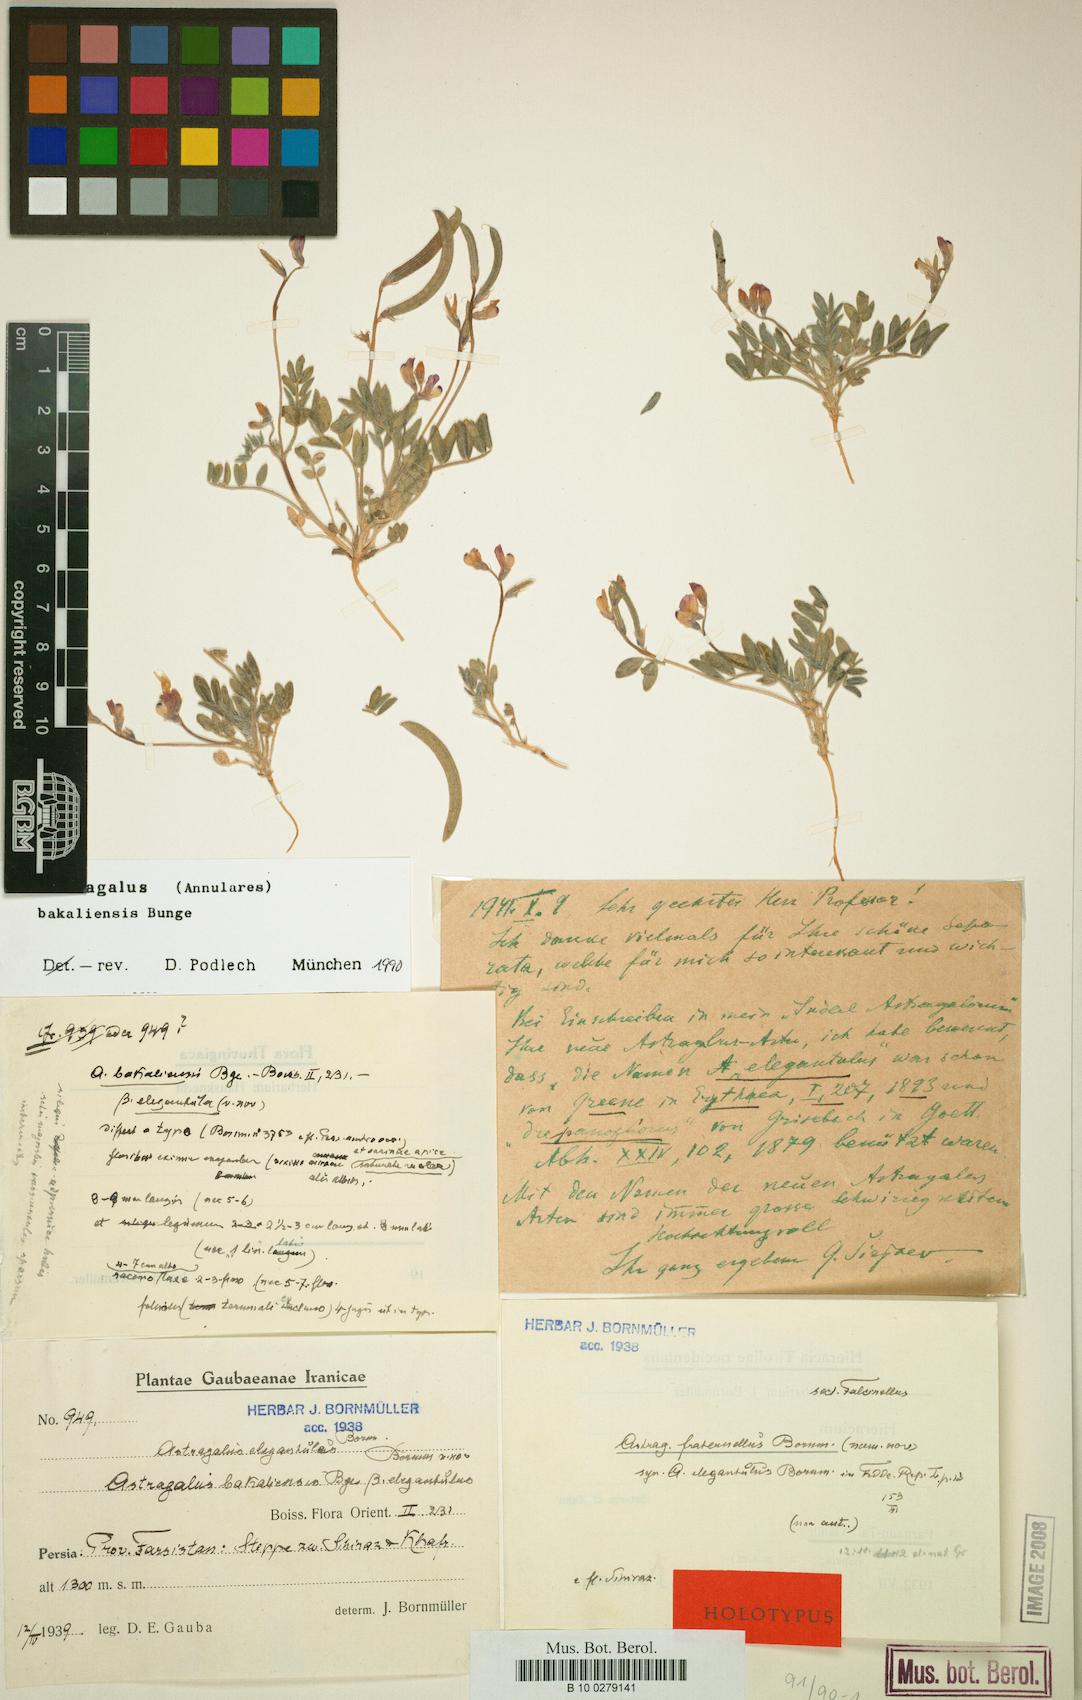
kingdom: Plantae
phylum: Tracheophyta
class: Magnoliopsida
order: Fabales
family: Fabaceae
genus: Astragalus
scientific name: Astragalus bakaliensis
